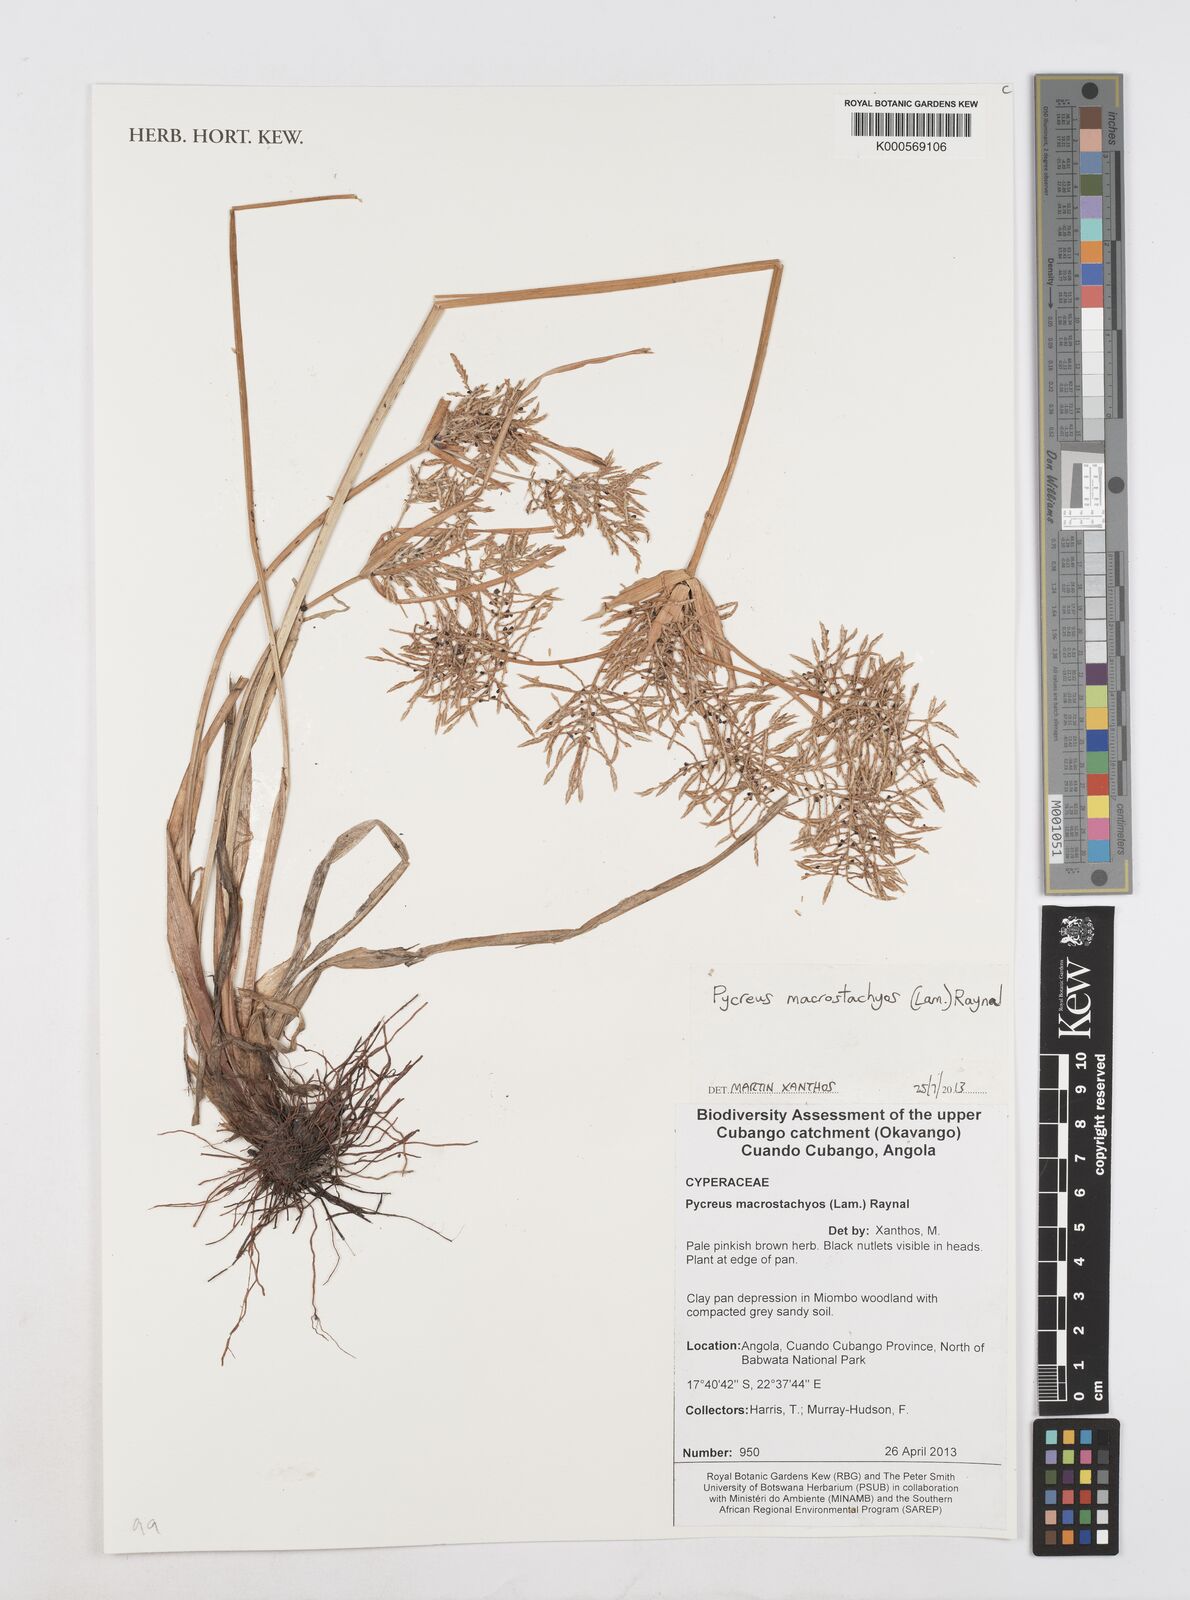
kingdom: Plantae
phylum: Tracheophyta
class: Liliopsida
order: Poales
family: Cyperaceae
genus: Cyperus
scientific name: Cyperus macrostachyos
